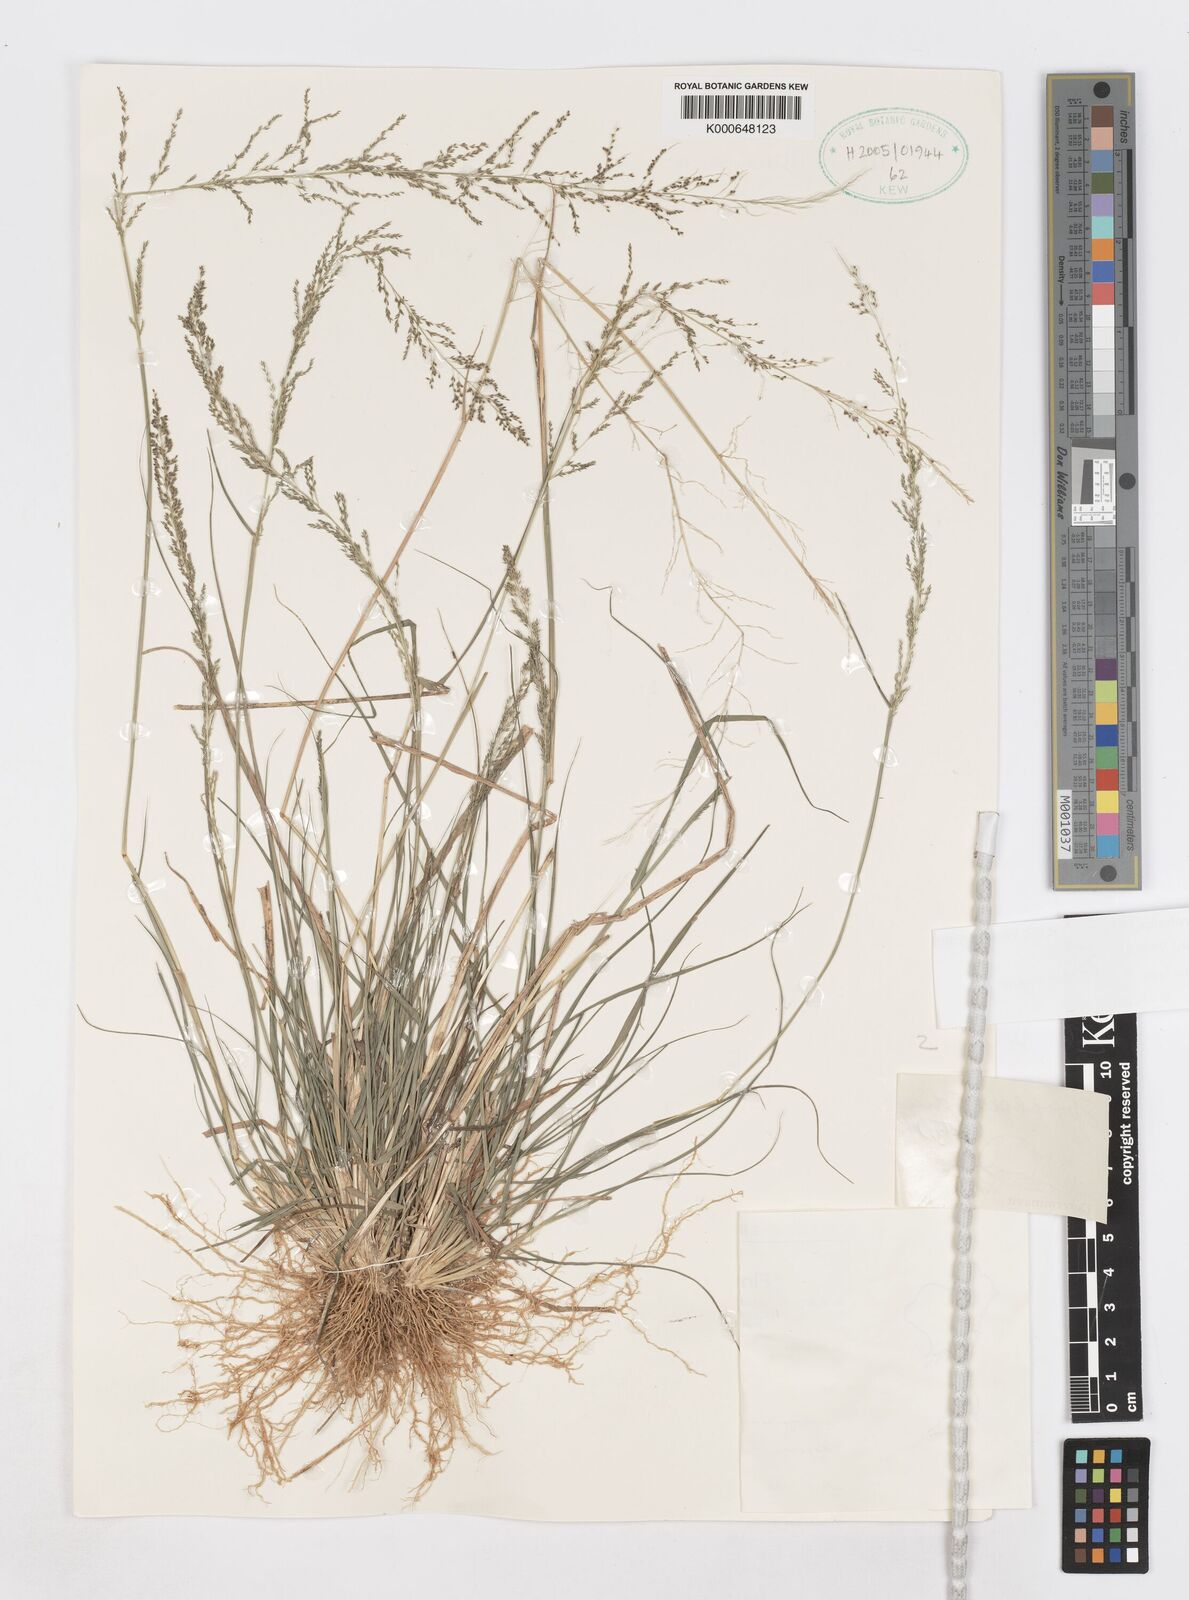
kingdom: Plantae
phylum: Tracheophyta
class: Liliopsida
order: Poales
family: Poaceae
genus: Sporobolus
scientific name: Sporobolus diandrus
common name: Tussock dropseed
